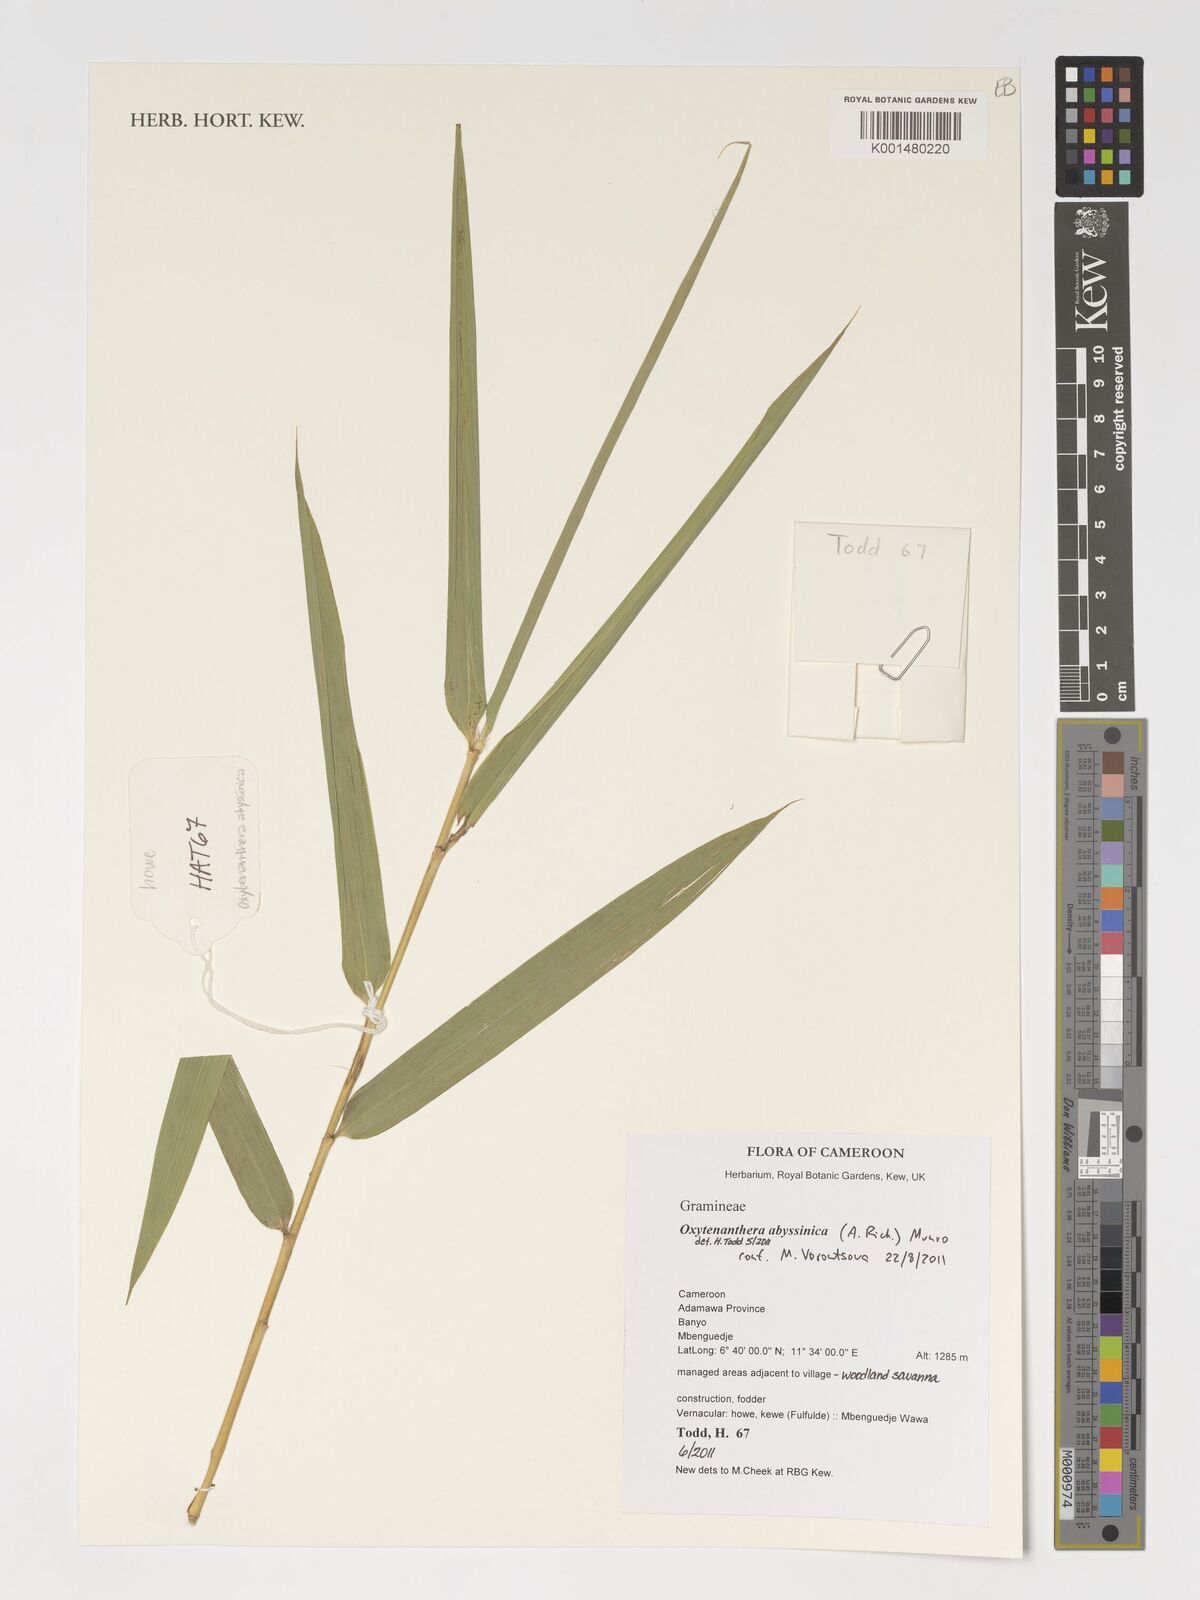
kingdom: Plantae
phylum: Tracheophyta
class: Liliopsida
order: Poales
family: Poaceae
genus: Oxytenanthera
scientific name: Oxytenanthera abyssinica
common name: Wine bamboo
